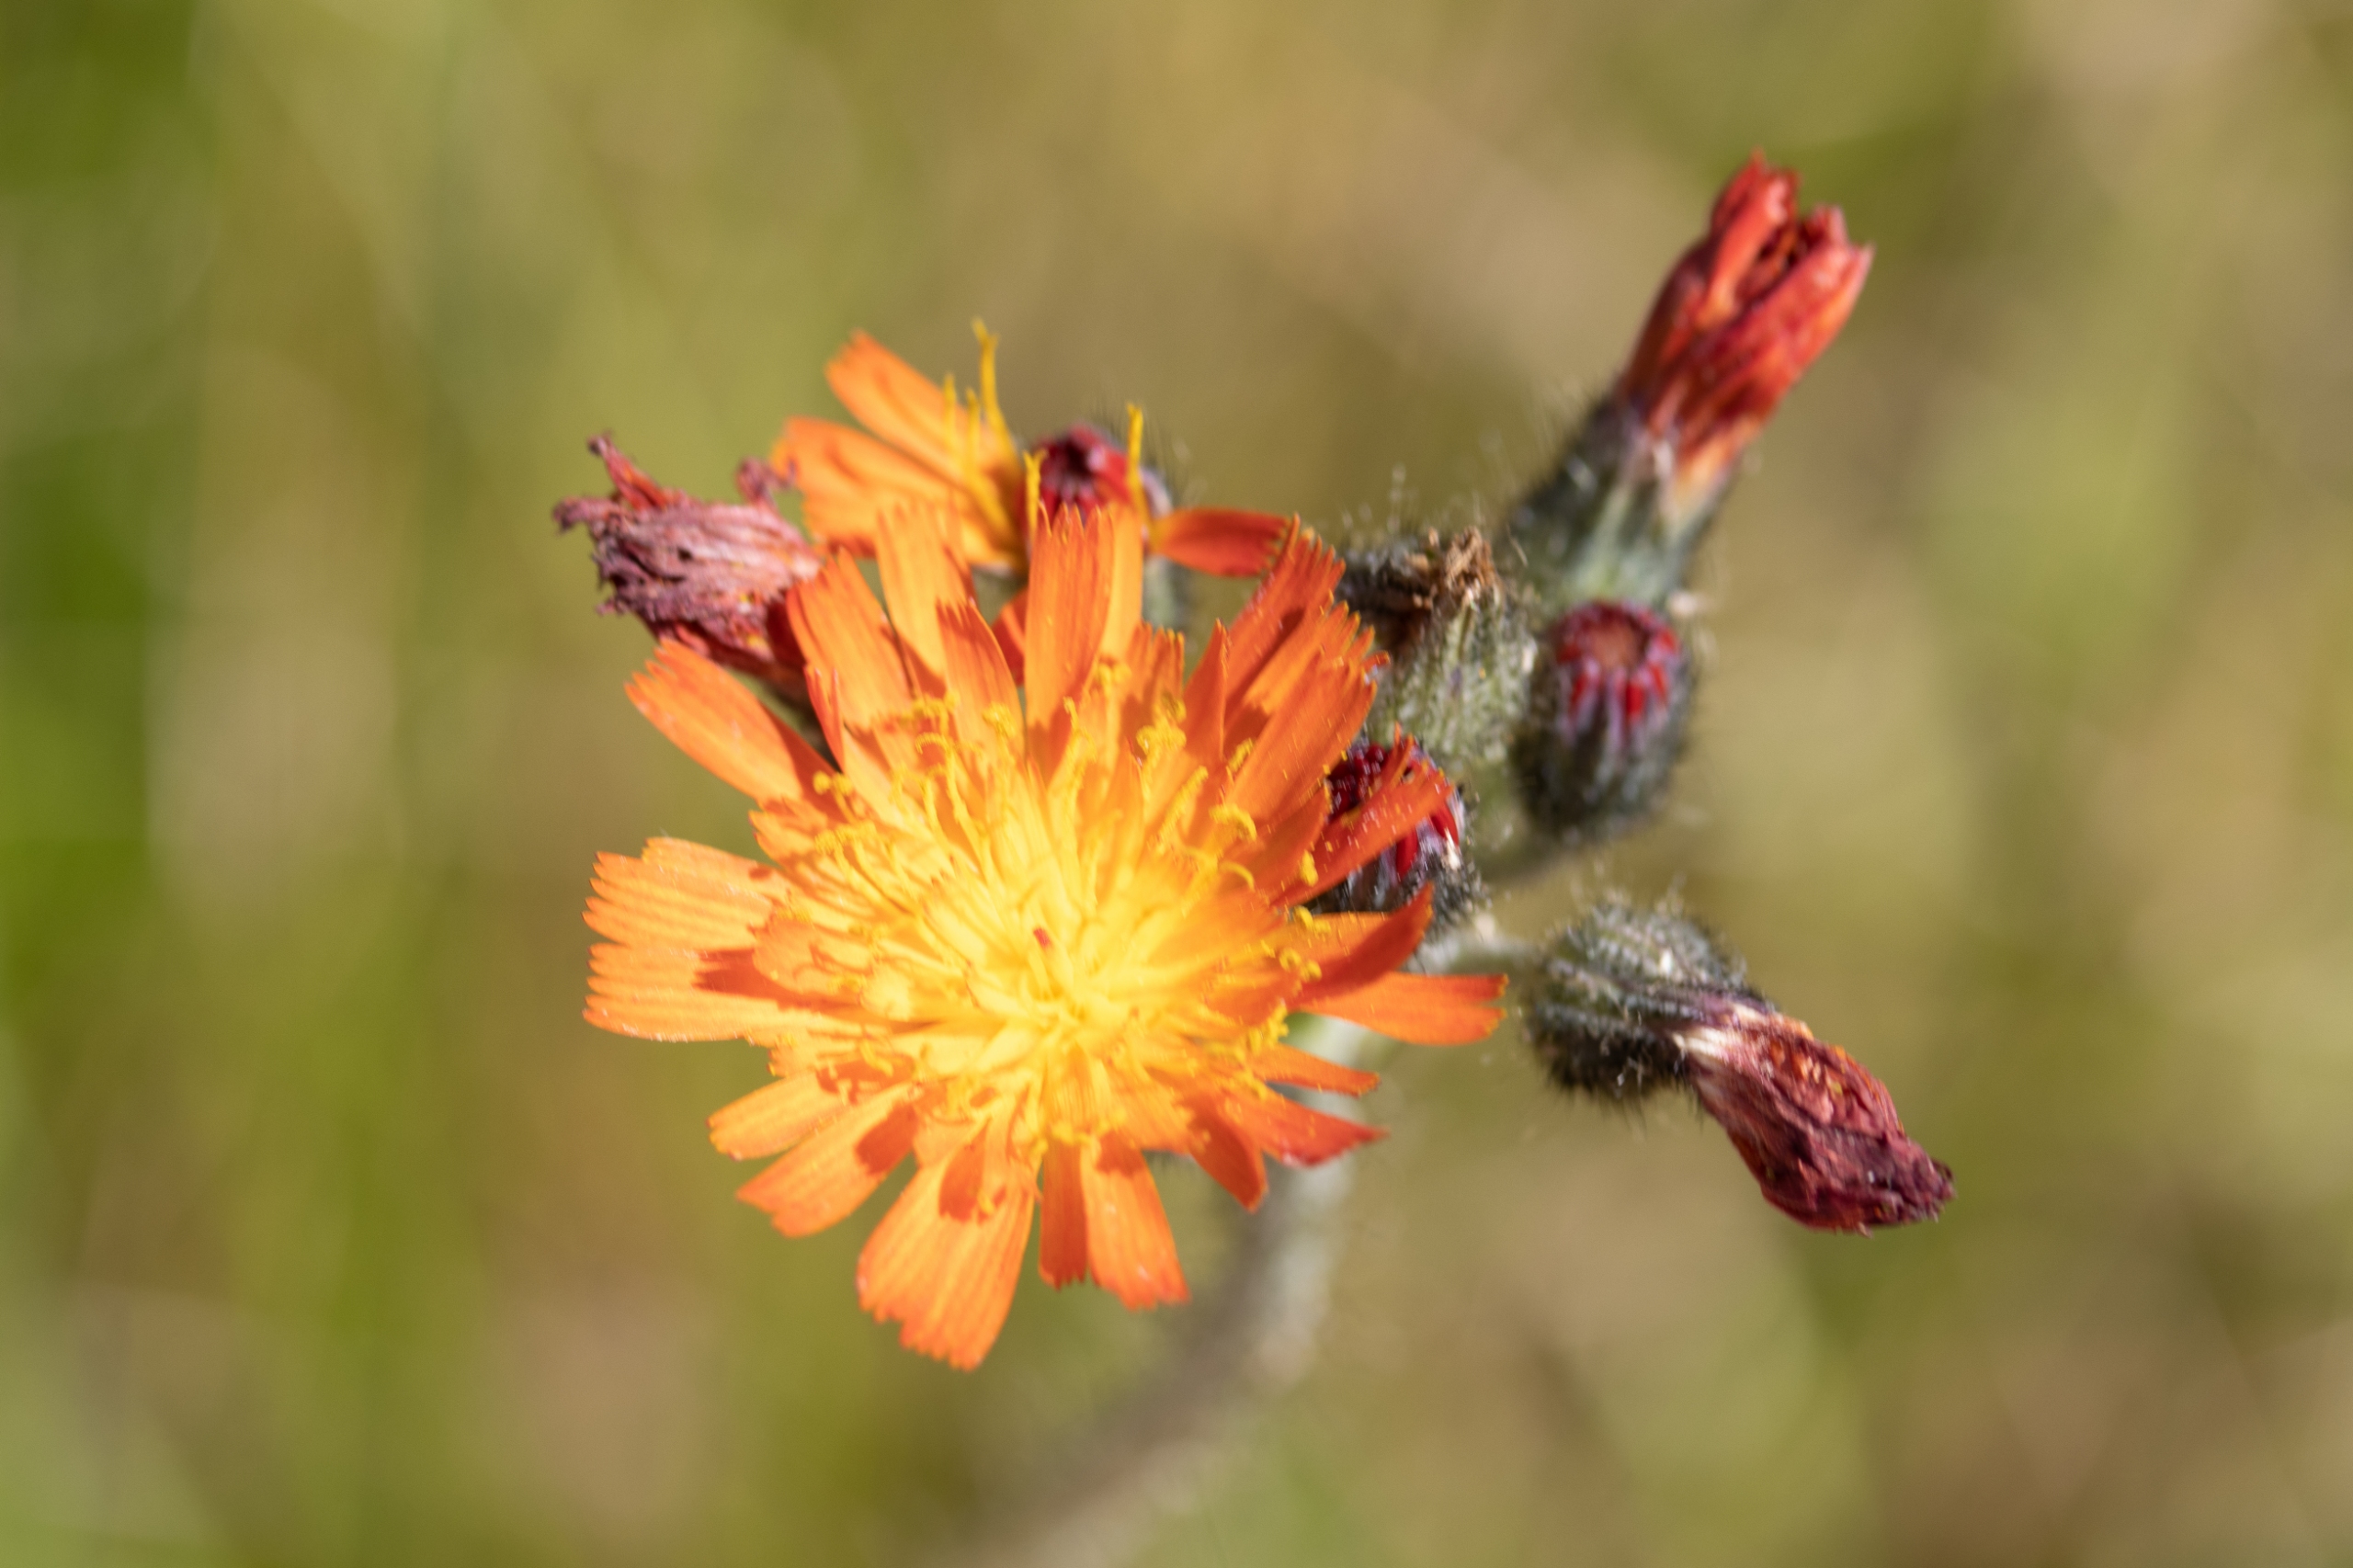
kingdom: Plantae
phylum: Tracheophyta
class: Magnoliopsida
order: Asterales
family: Asteraceae
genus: Pilosella
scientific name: Pilosella aurantiaca
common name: Pomerans-høgeurt
